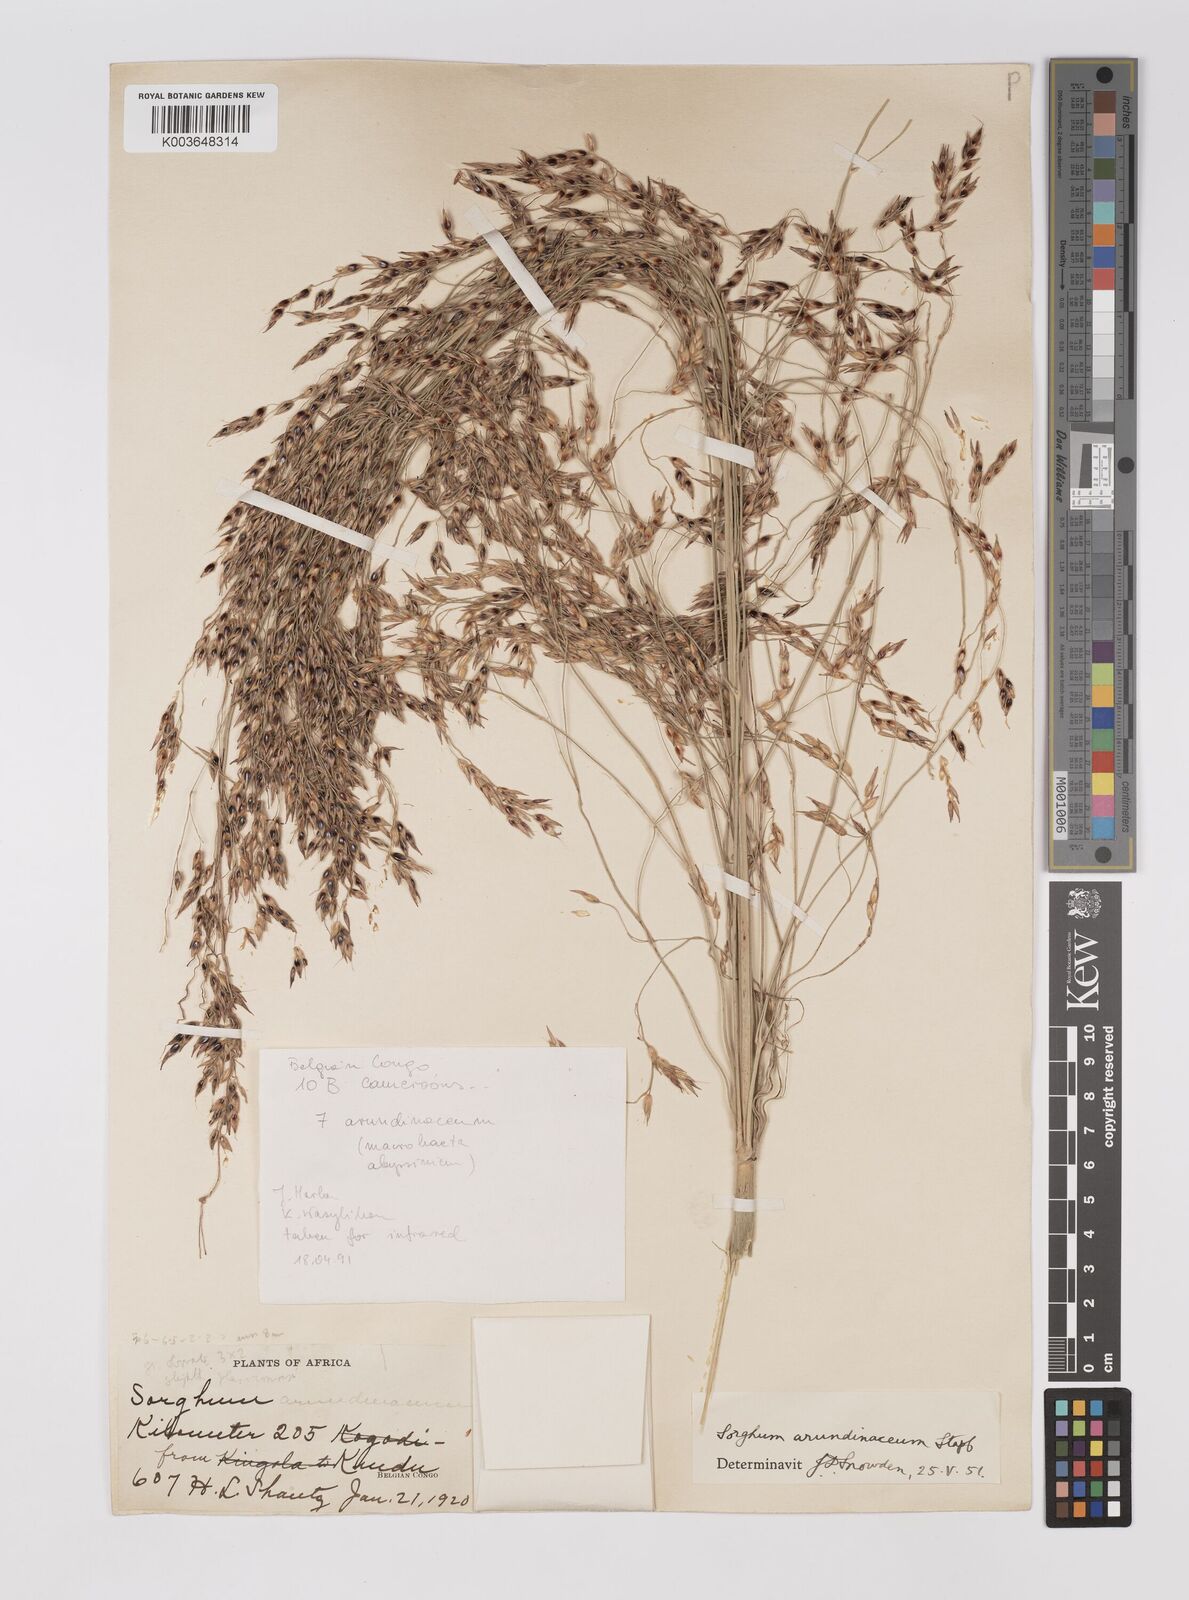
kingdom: Plantae
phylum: Tracheophyta
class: Liliopsida
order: Poales
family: Poaceae
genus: Sorghum
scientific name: Sorghum arundinaceum
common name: Sorghum
